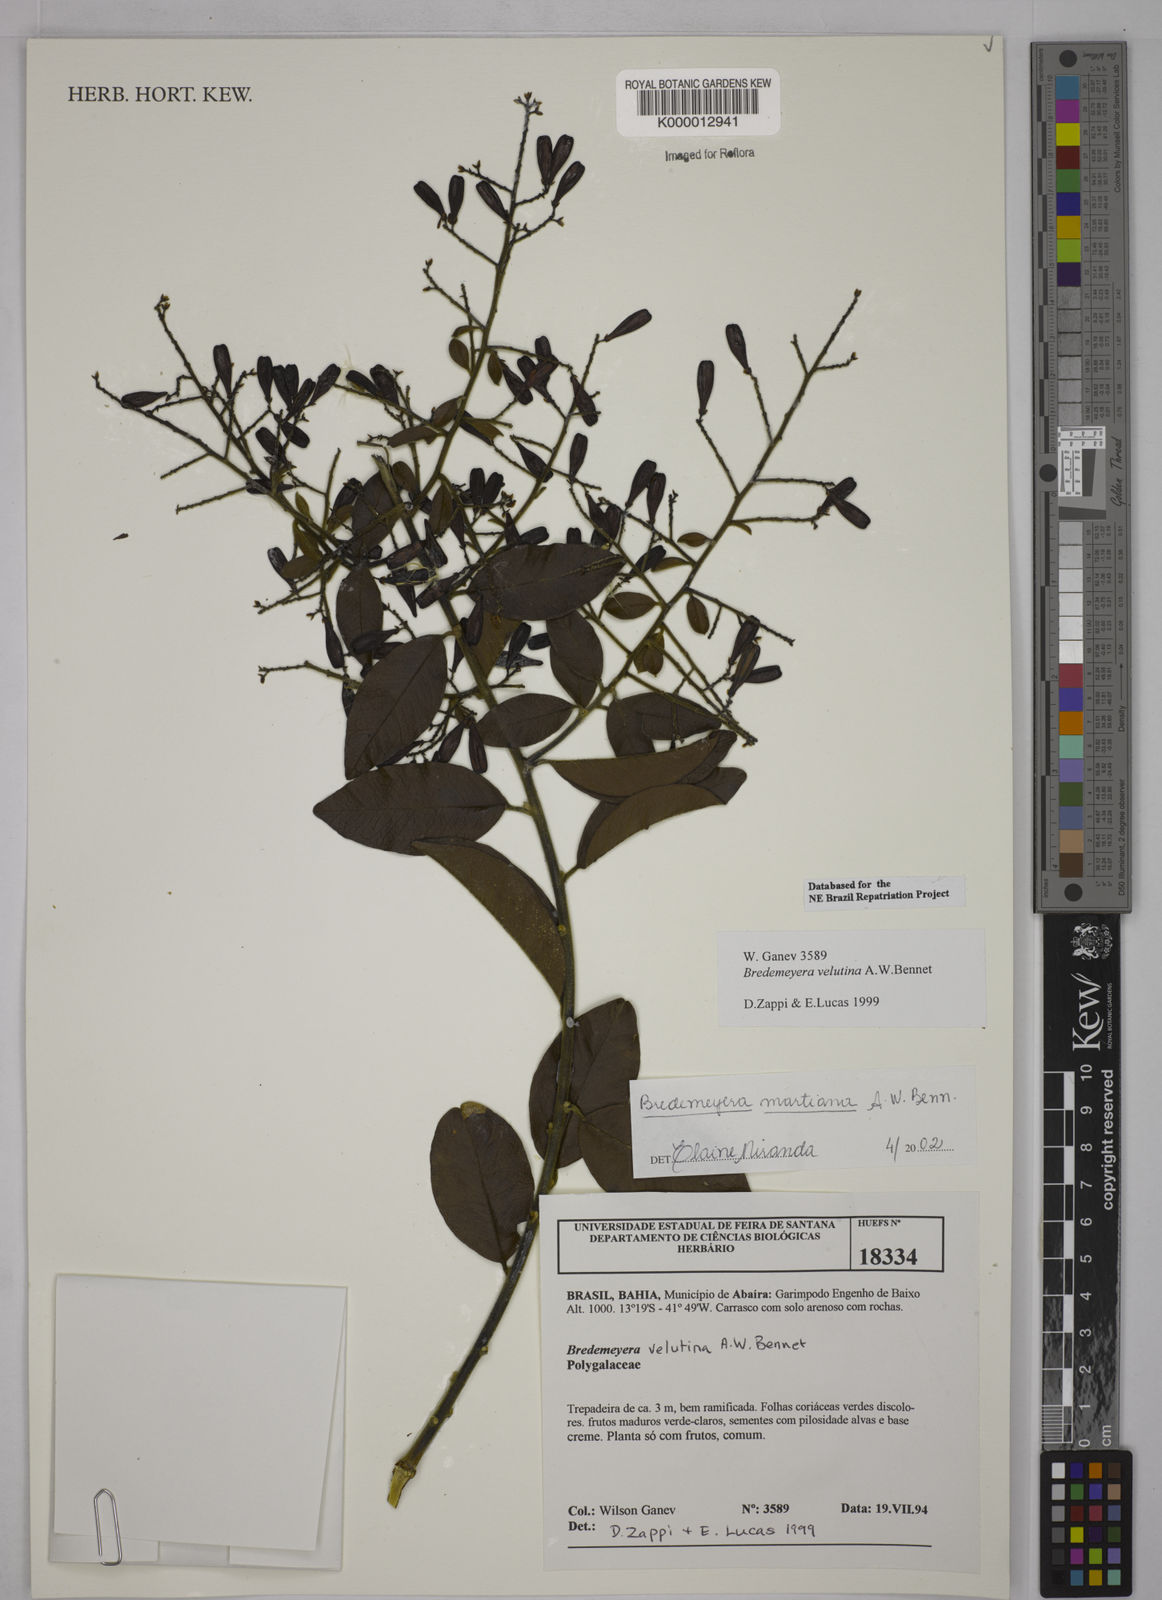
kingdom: Plantae
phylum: Tracheophyta
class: Magnoliopsida
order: Fabales
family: Polygalaceae
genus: Bredemeyera
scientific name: Bredemeyera martiana
